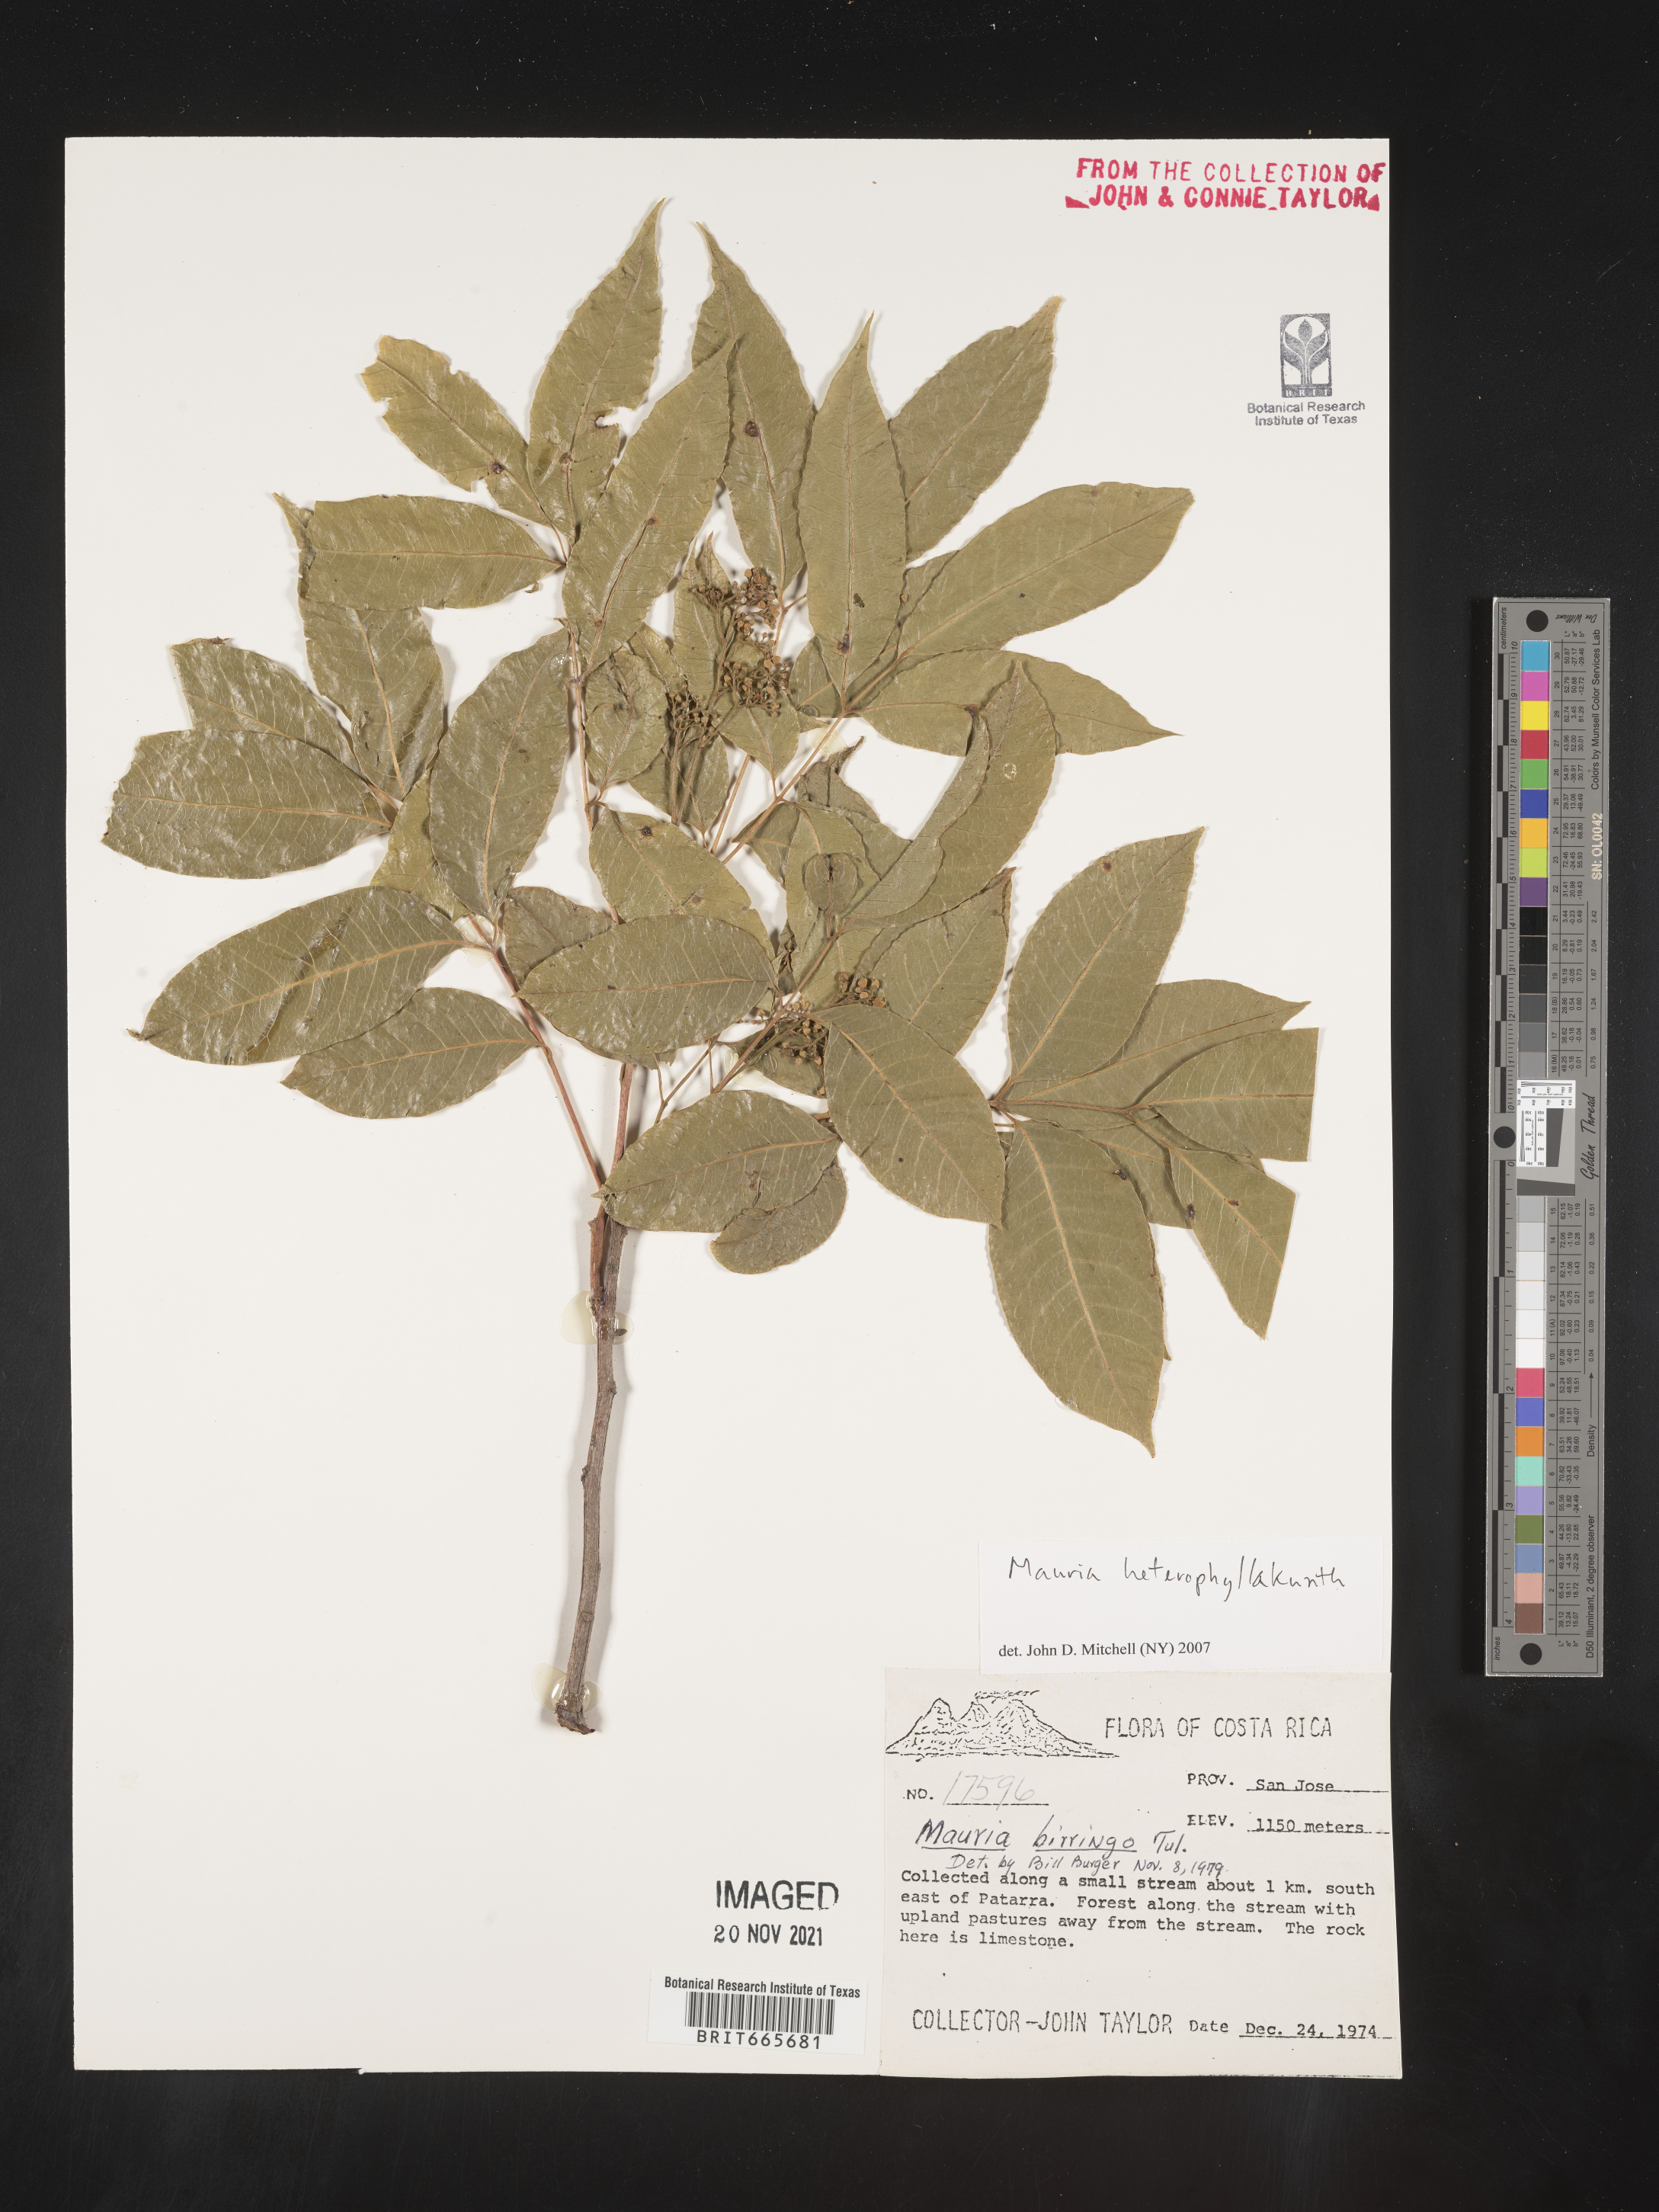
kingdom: Plantae
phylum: Tracheophyta
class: Magnoliopsida
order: Sapindales
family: Anacardiaceae
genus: Mauria
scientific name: Mauria
